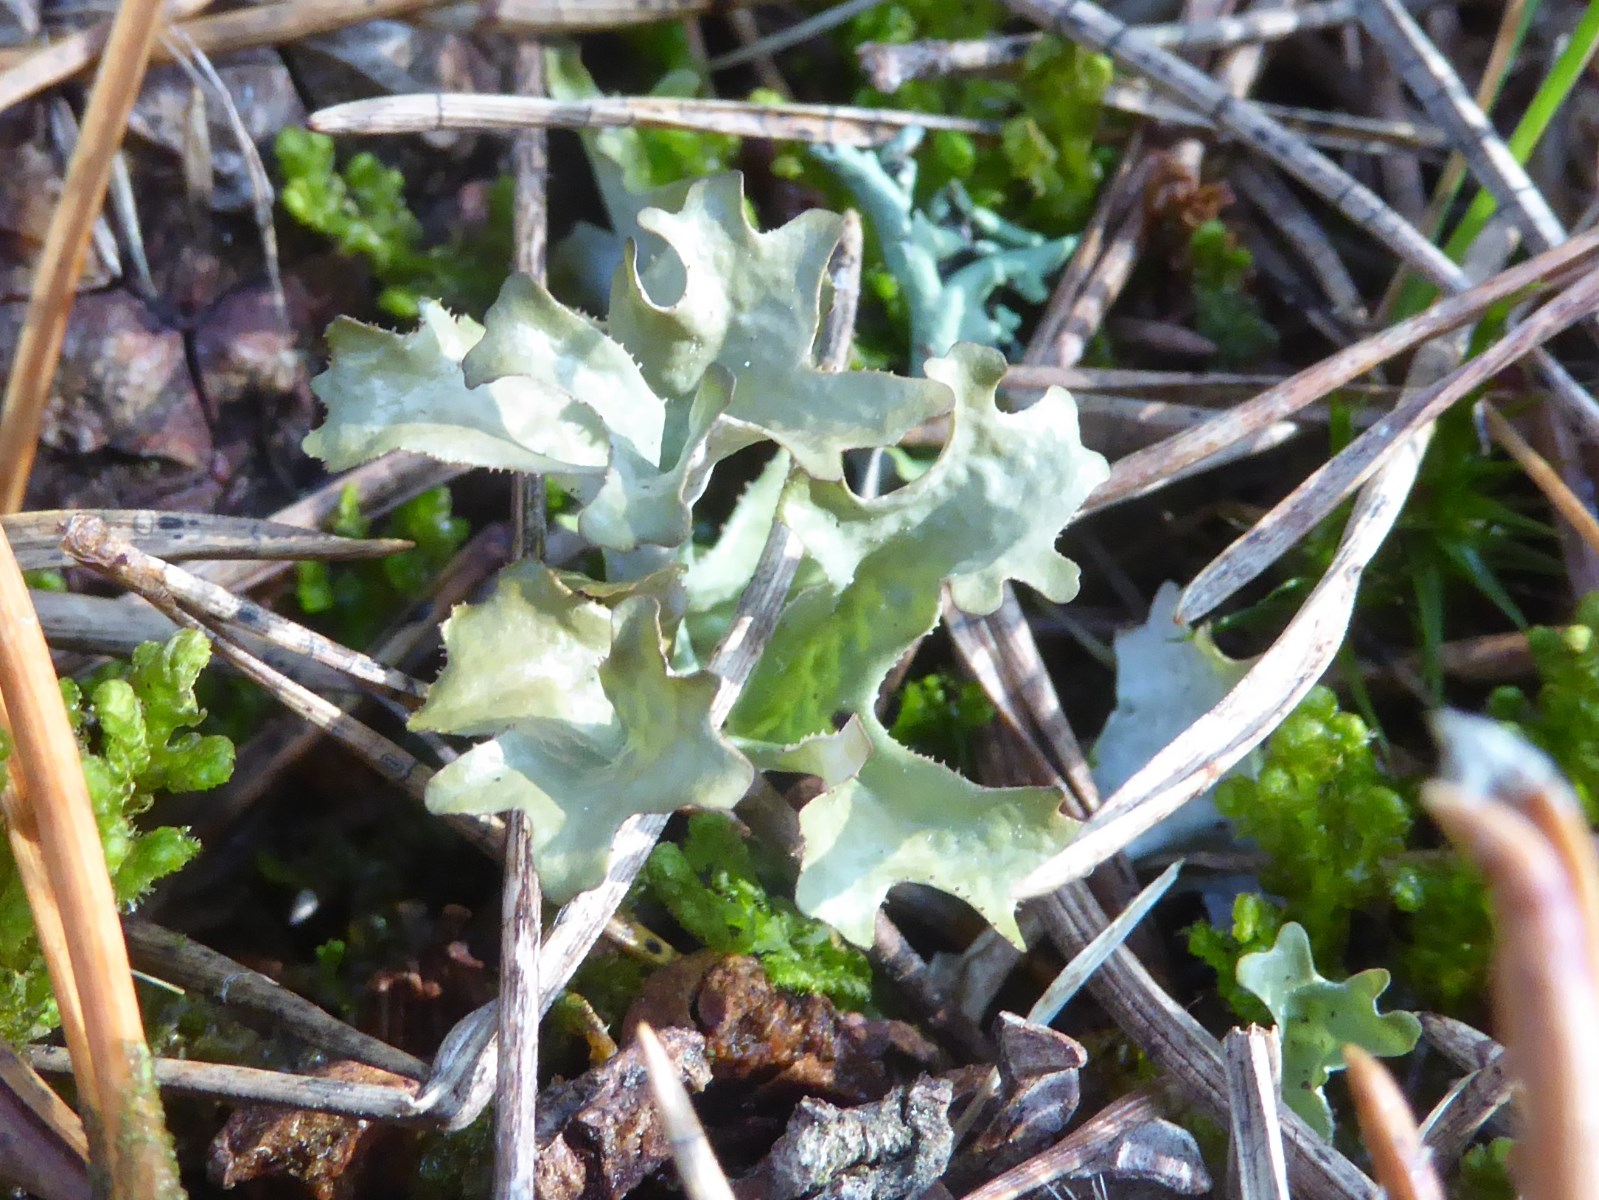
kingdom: Fungi
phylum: Ascomycota
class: Lecanoromycetes
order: Lecanorales
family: Parmeliaceae
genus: Cetraria
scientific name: Cetraria islandica
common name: islandsk kruslav
